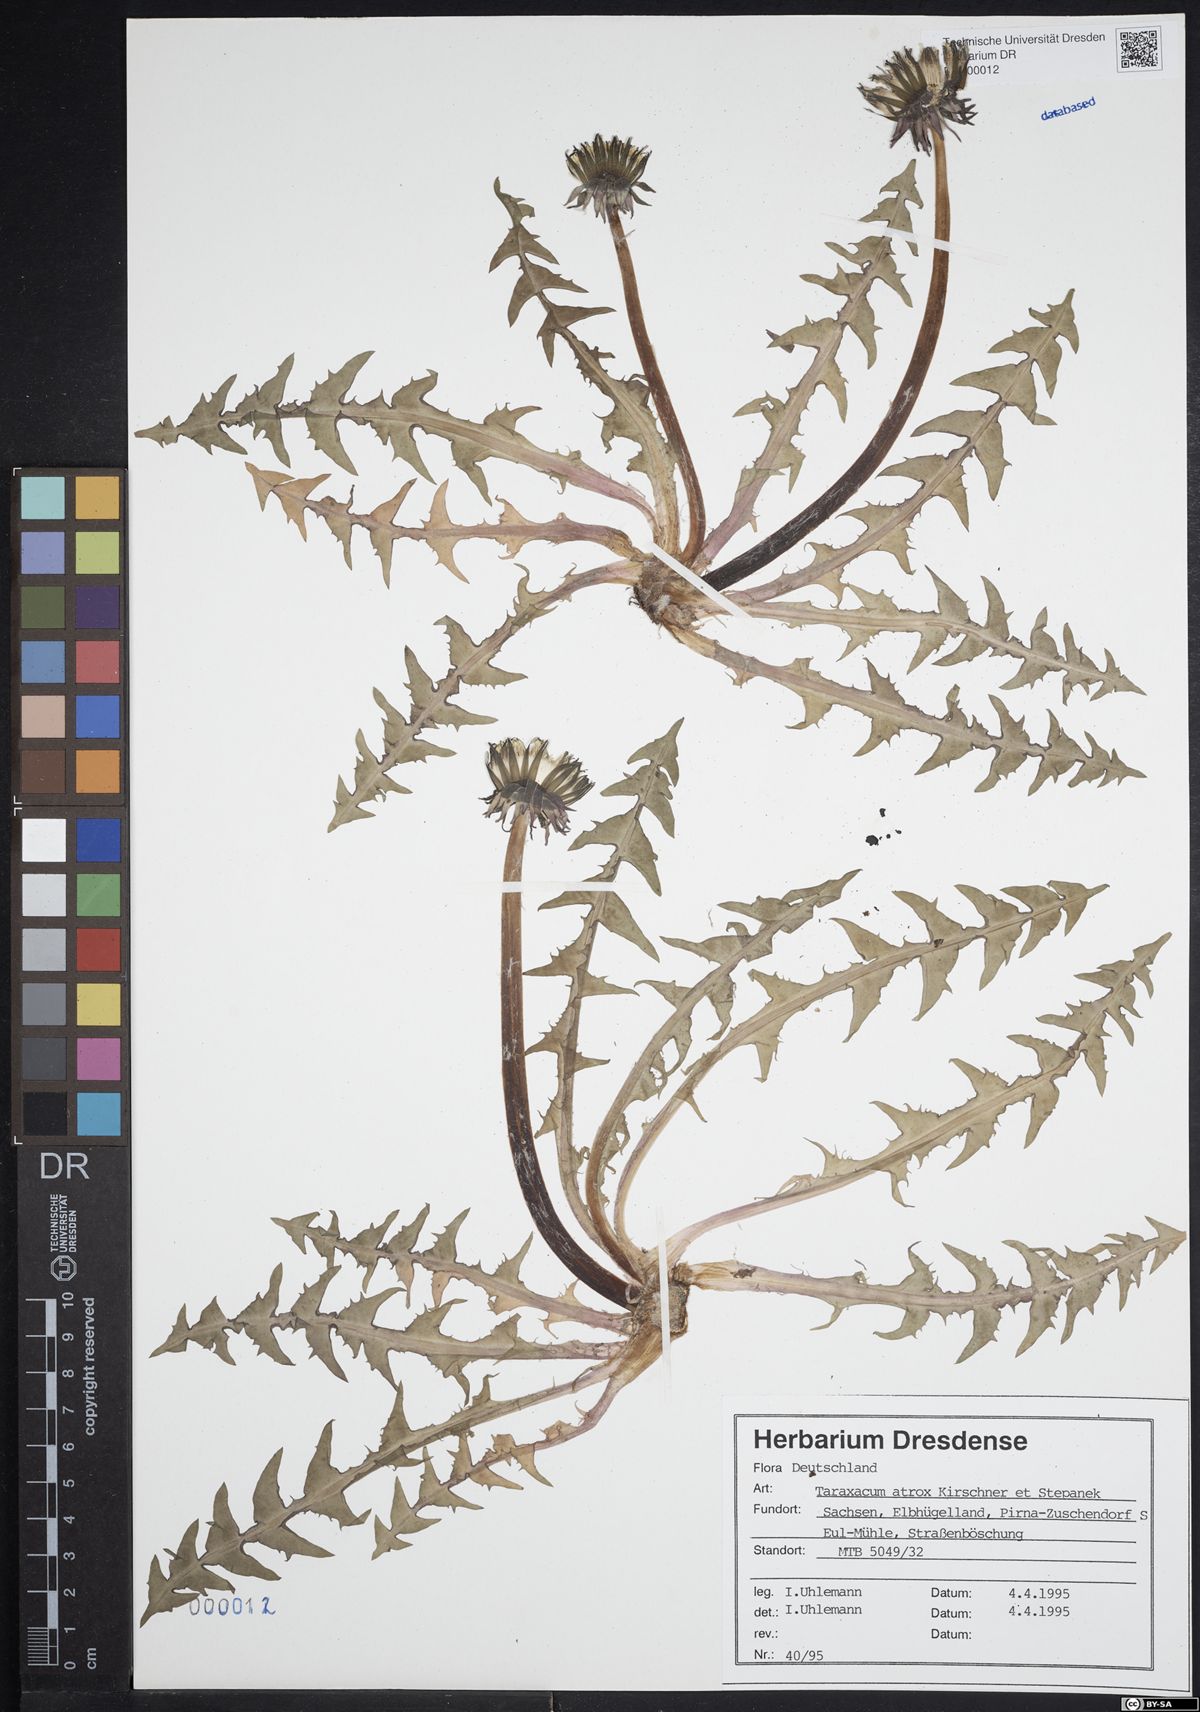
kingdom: Plantae
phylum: Tracheophyta
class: Magnoliopsida
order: Asterales
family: Asteraceae
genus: Taraxacum
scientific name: Taraxacum atrox
